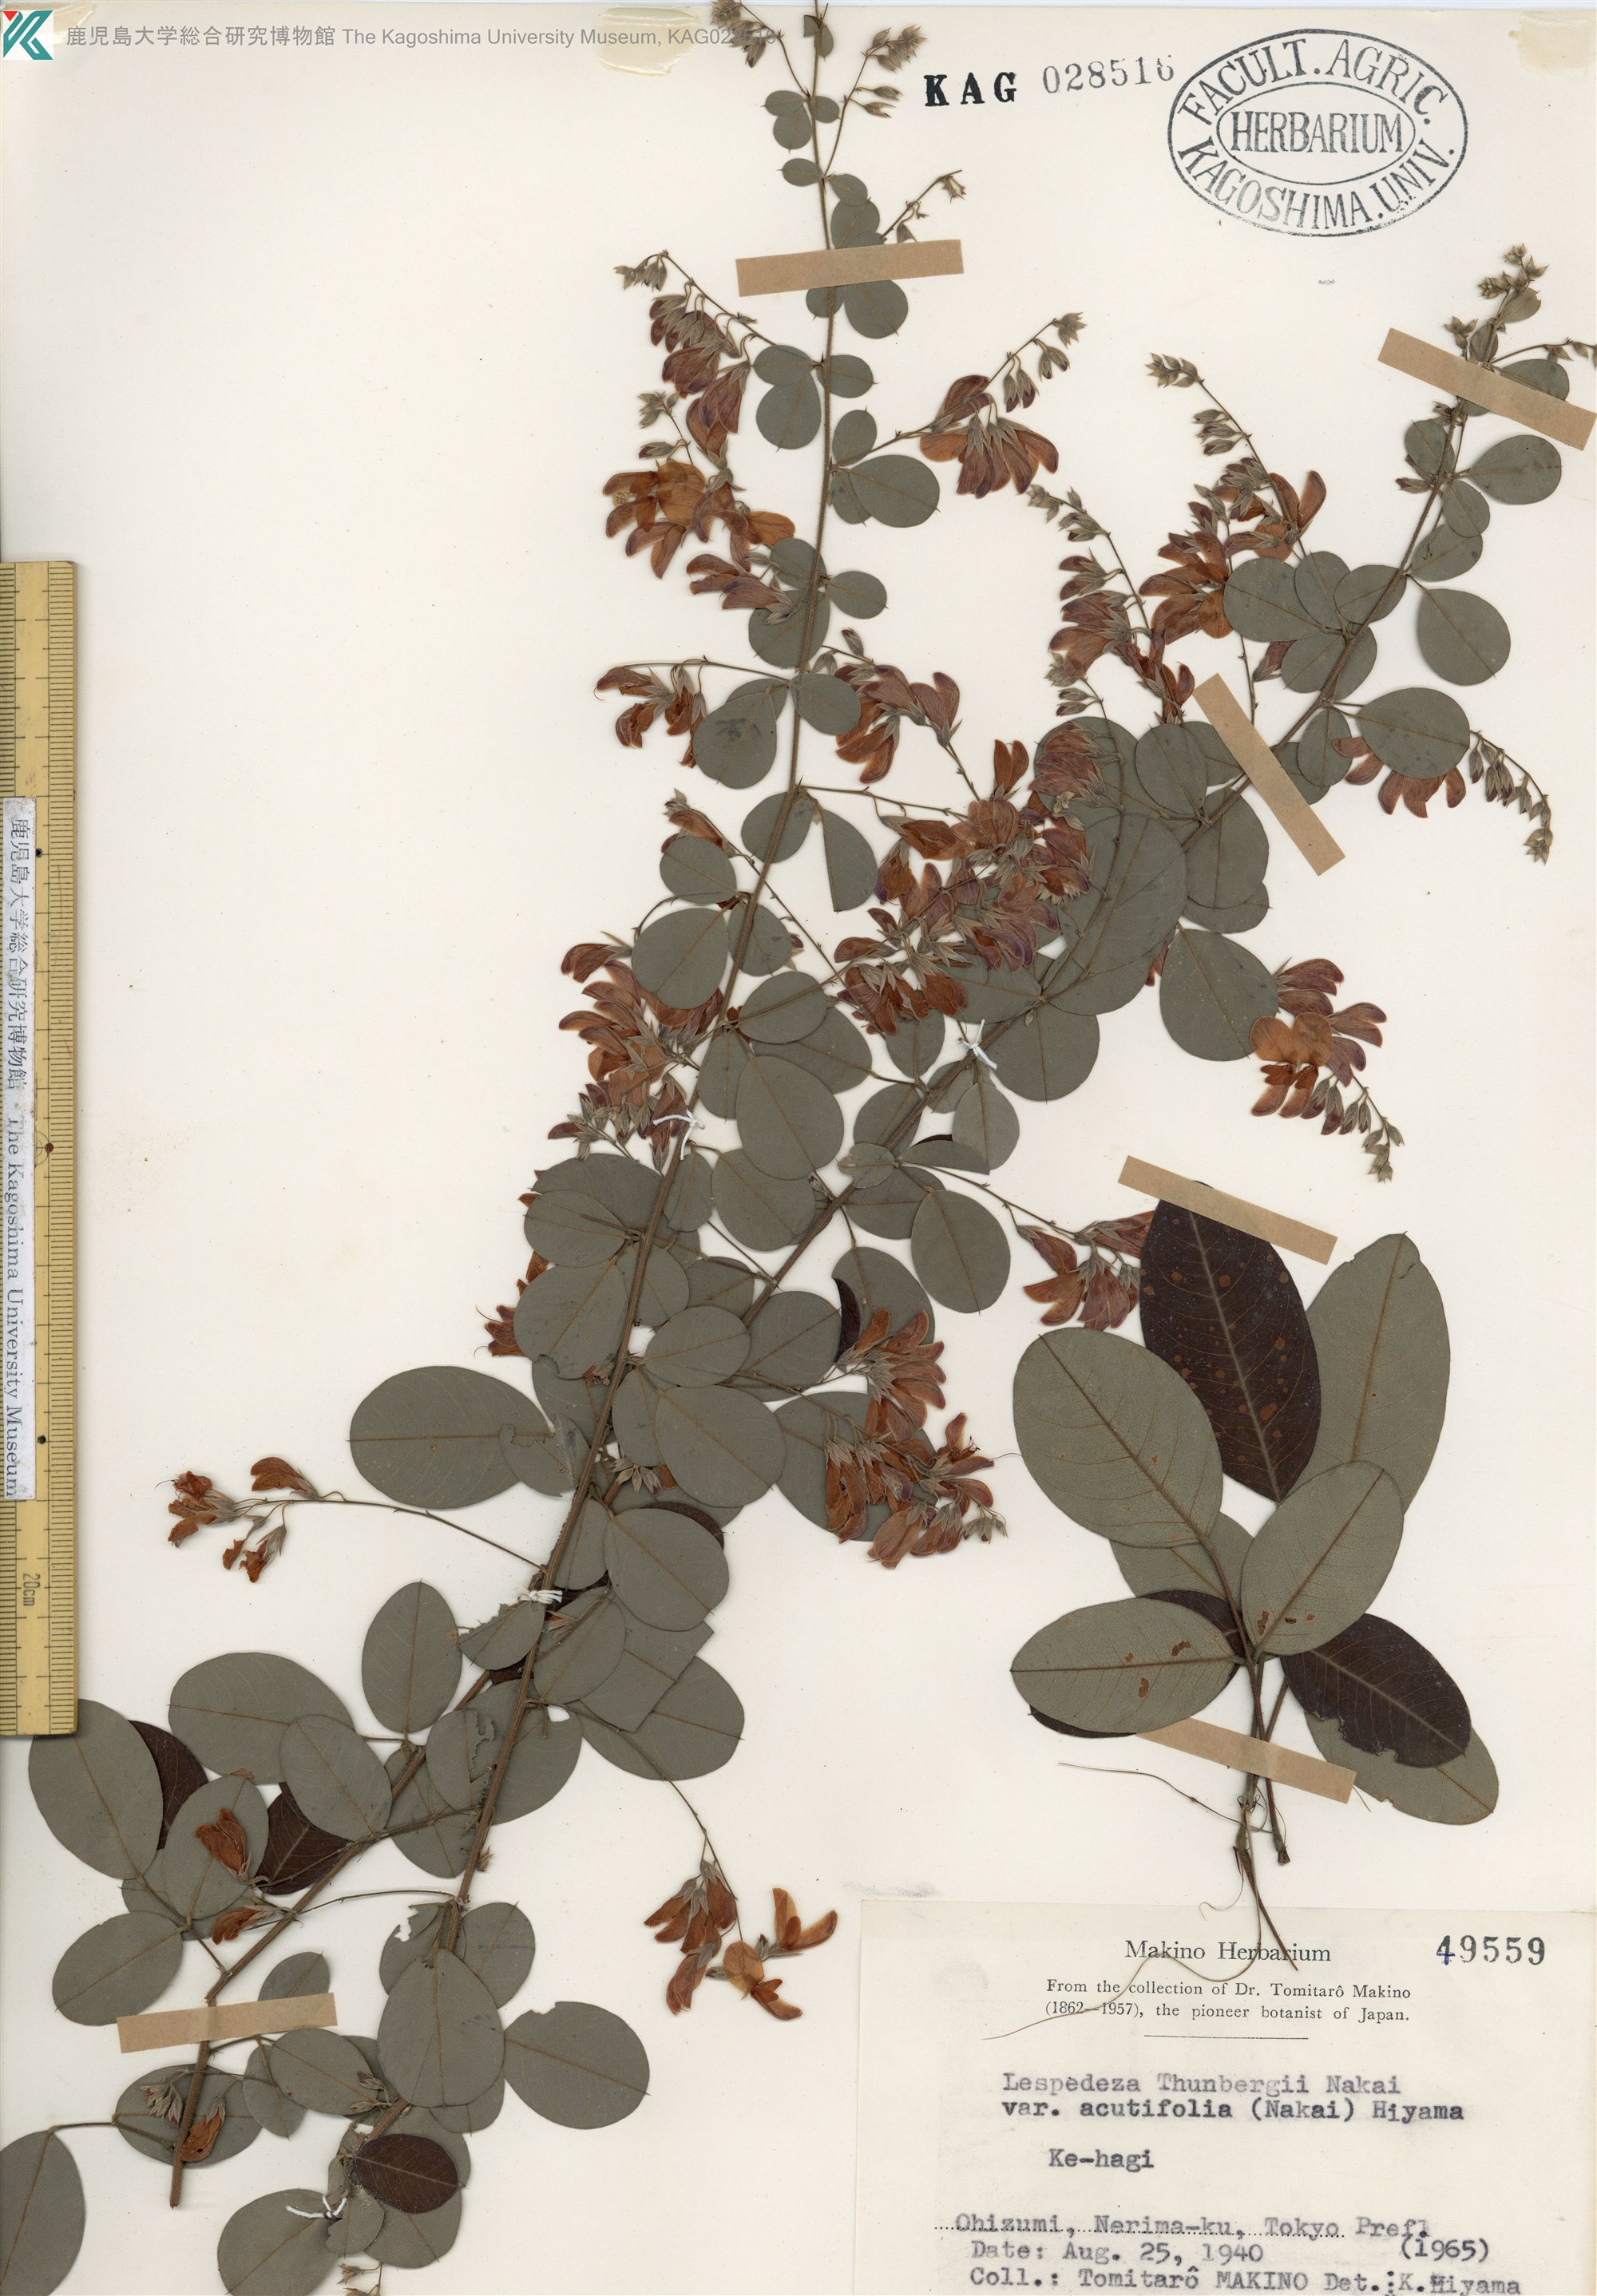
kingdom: Plantae
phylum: Tracheophyta
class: Magnoliopsida
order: Fabales
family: Fabaceae
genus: Lespedeza
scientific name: Lespedeza thunbergii
